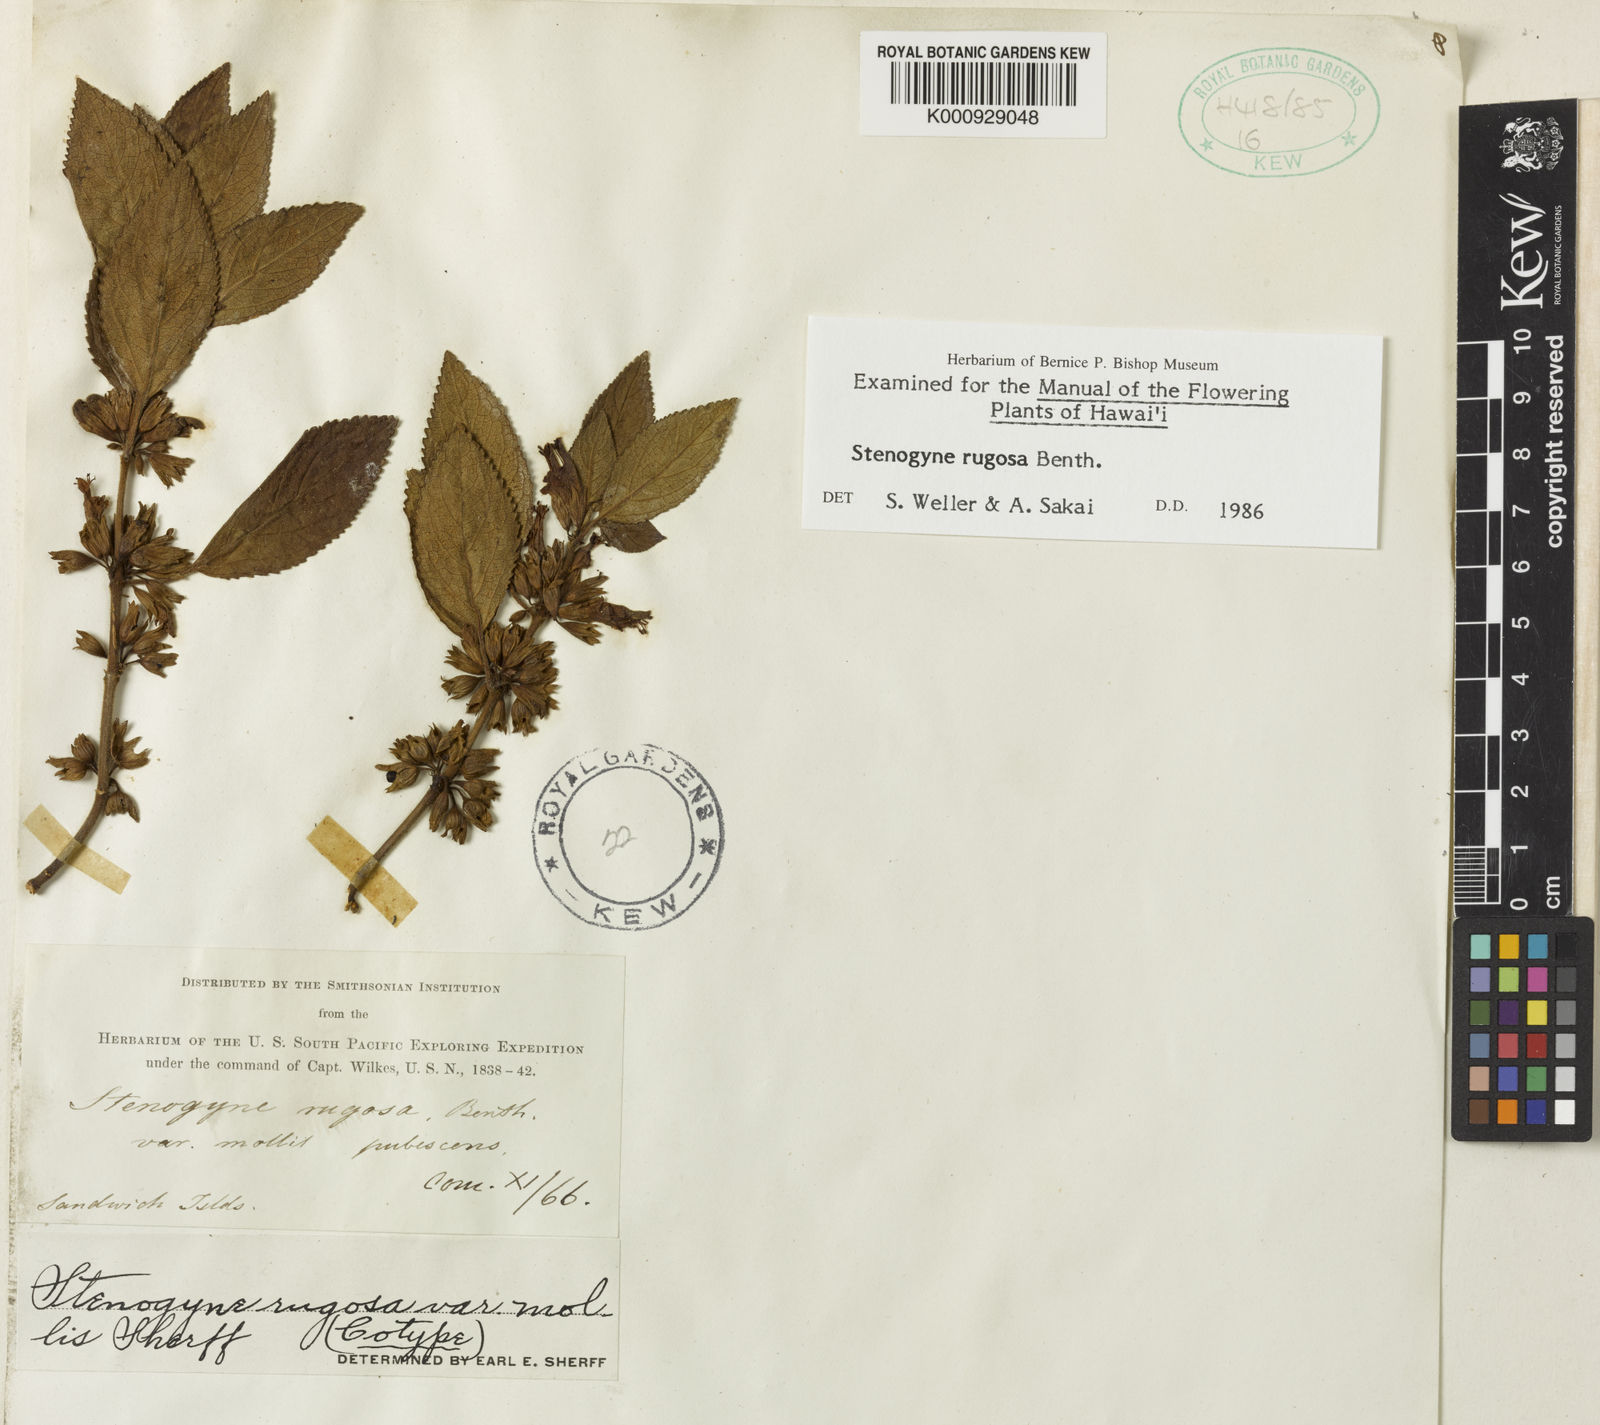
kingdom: Plantae
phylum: Tracheophyta
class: Magnoliopsida
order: Lamiales
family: Lamiaceae
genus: Stenogyne
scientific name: Stenogyne rugosa
